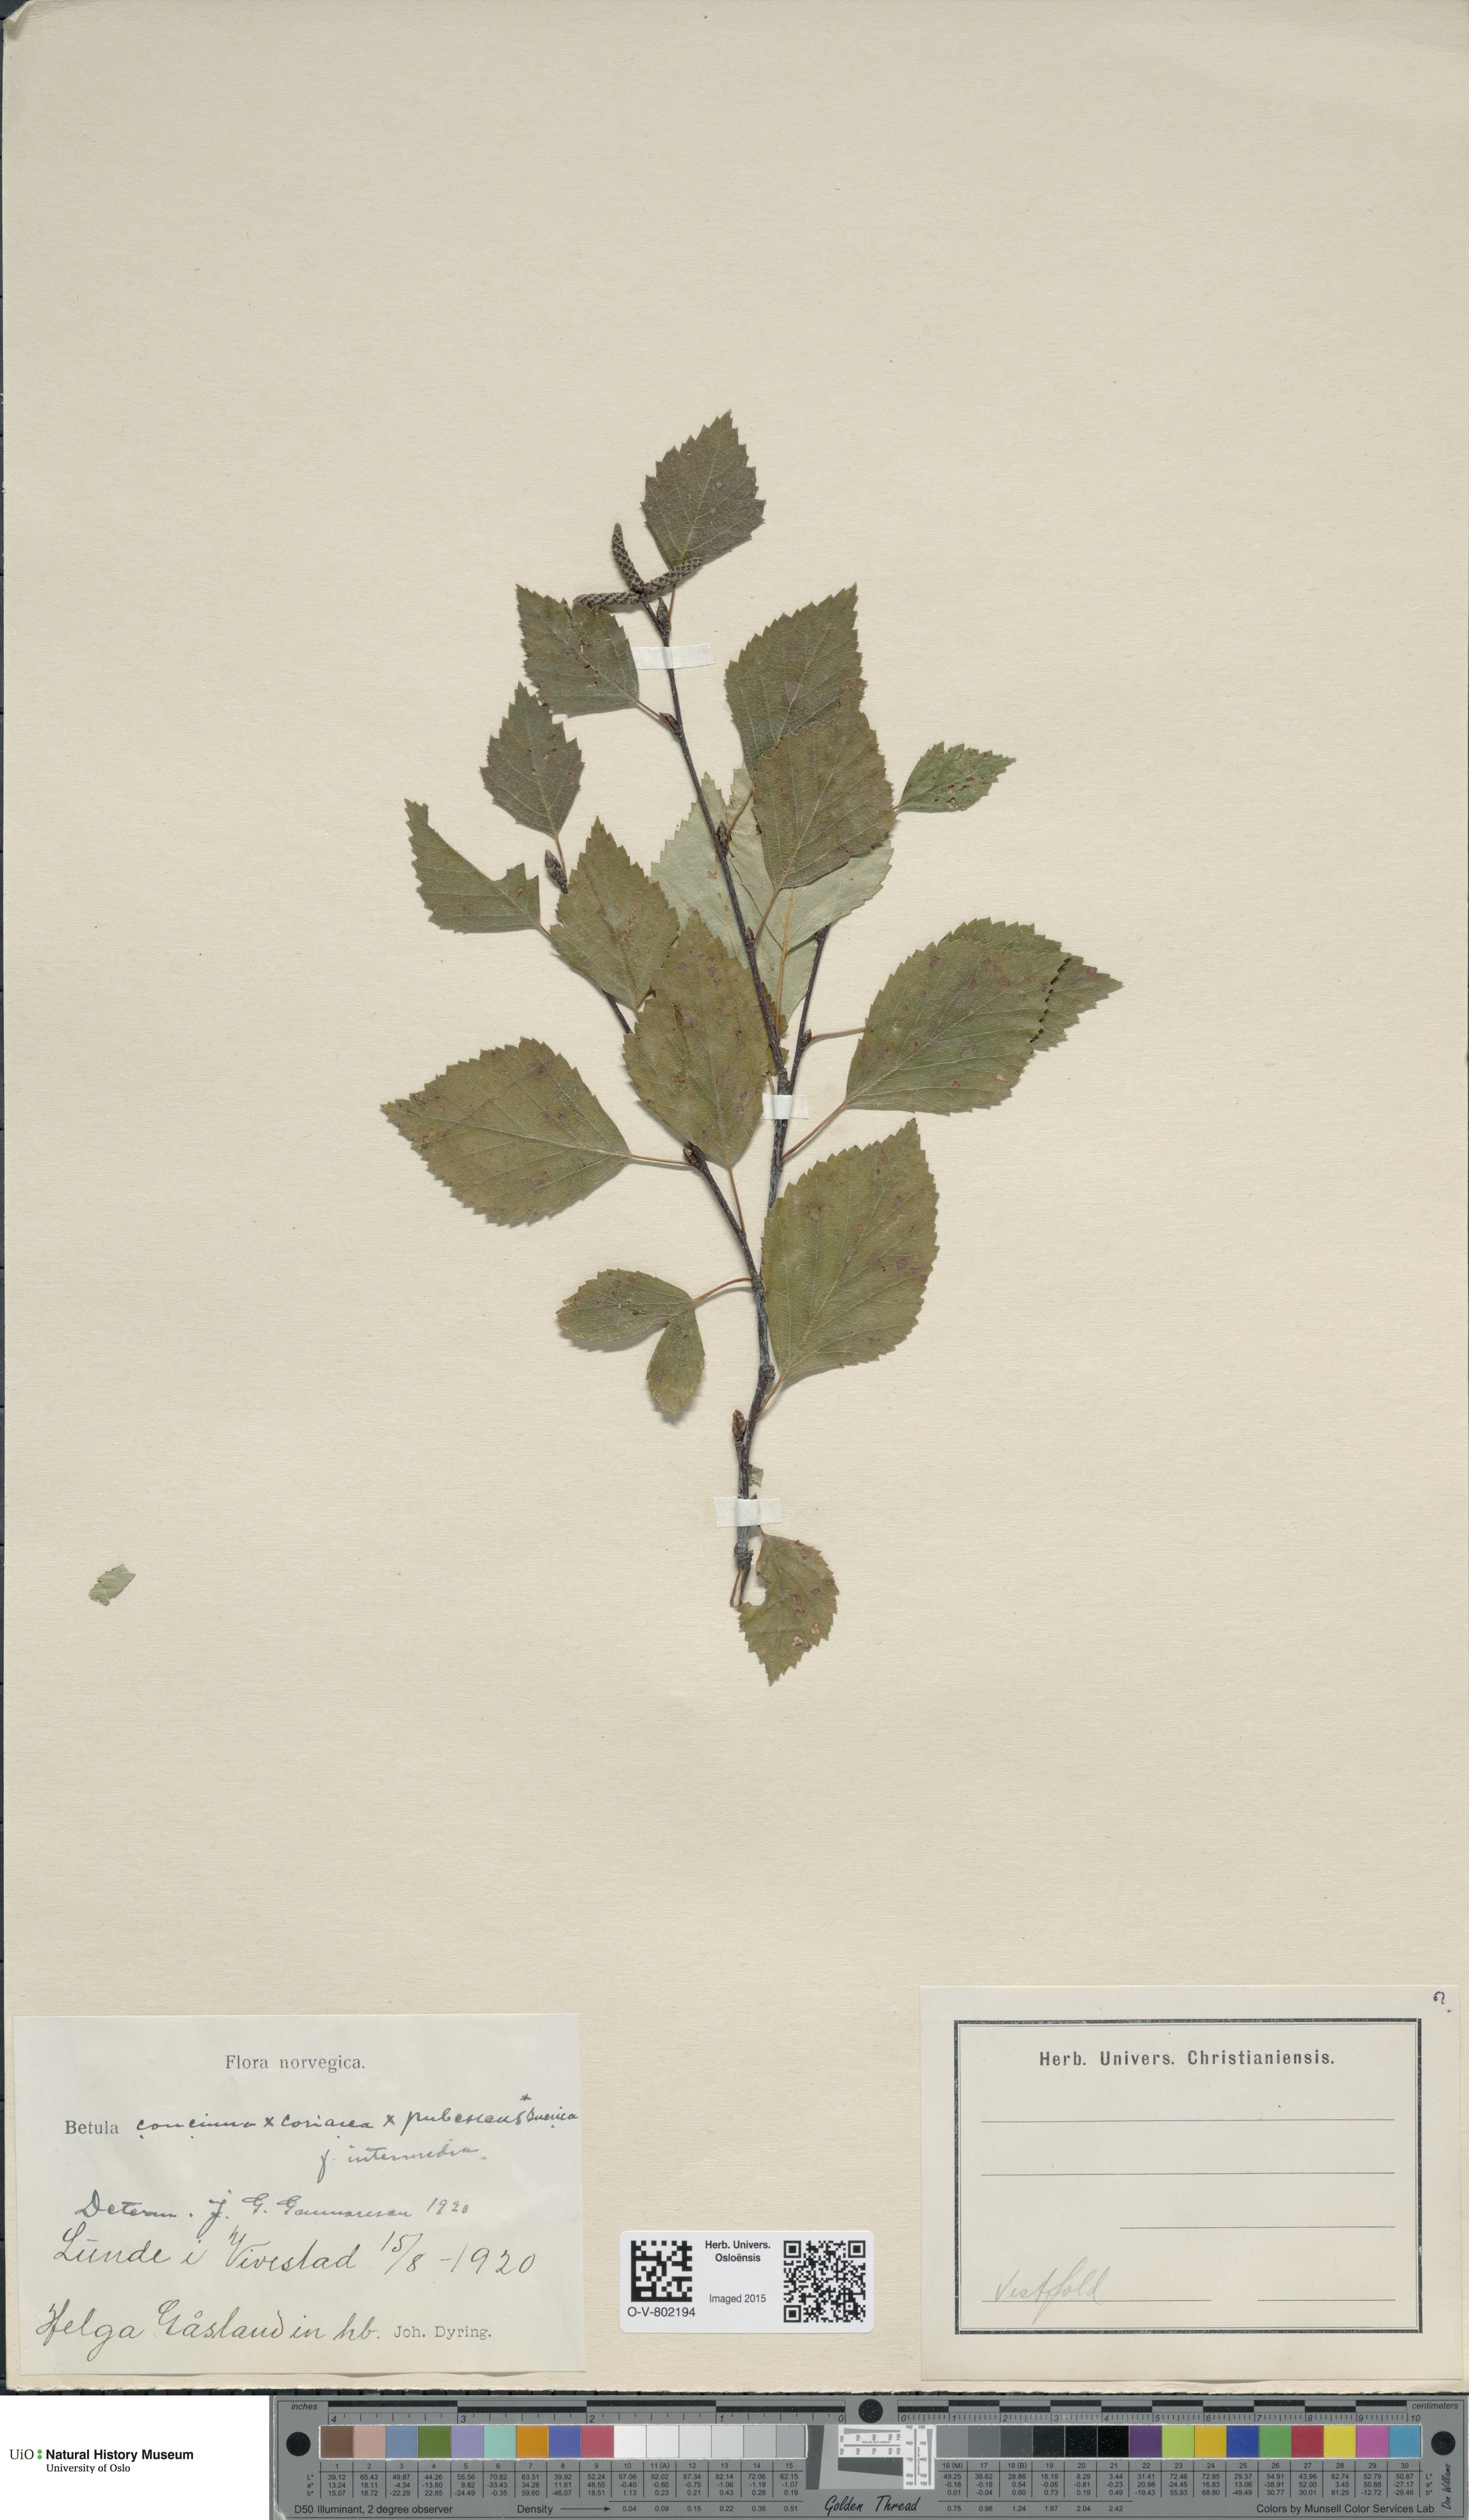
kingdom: Plantae
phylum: Tracheophyta
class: Magnoliopsida
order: Fagales
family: Betulaceae
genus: Betula
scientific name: Betula pubescens
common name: Downy birch
